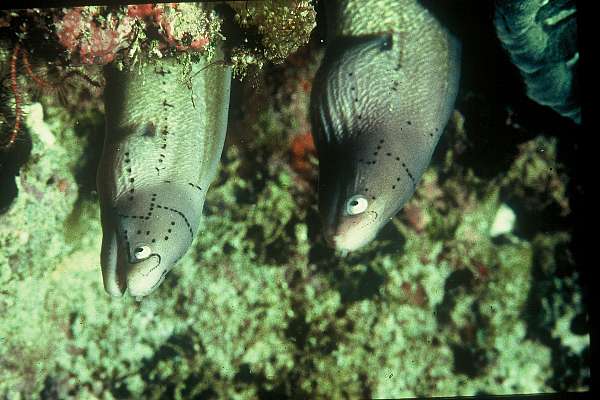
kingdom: Animalia
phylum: Chordata
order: Anguilliformes
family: Muraenidae
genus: Gymnothorax
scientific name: Gymnothorax griseus
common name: Geometric moray
